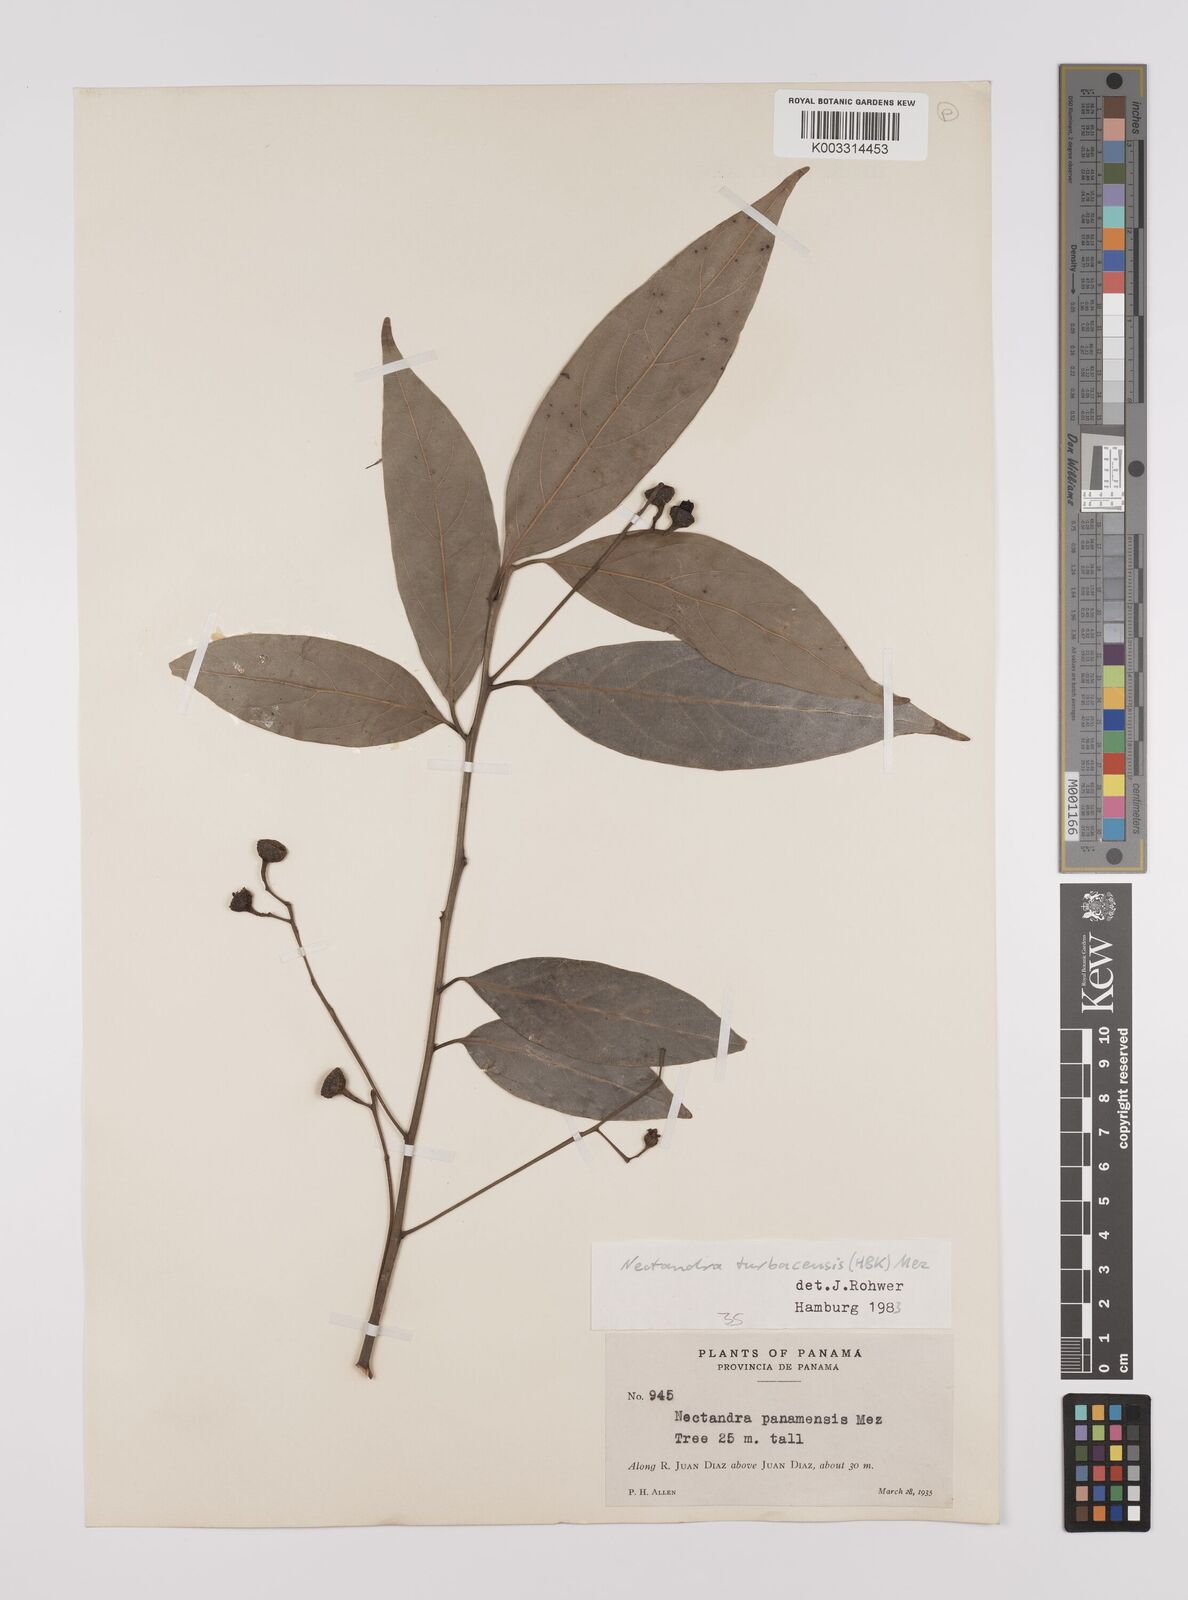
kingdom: Plantae
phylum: Tracheophyta
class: Magnoliopsida
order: Laurales
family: Lauraceae
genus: Nectandra
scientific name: Nectandra turbacensis
